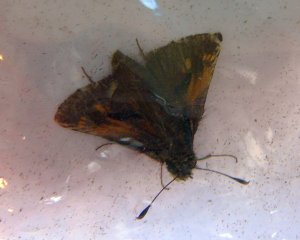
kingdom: Animalia
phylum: Arthropoda
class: Insecta
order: Lepidoptera
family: Hesperiidae
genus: Polites
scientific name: Polites coras
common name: Peck's Skipper
